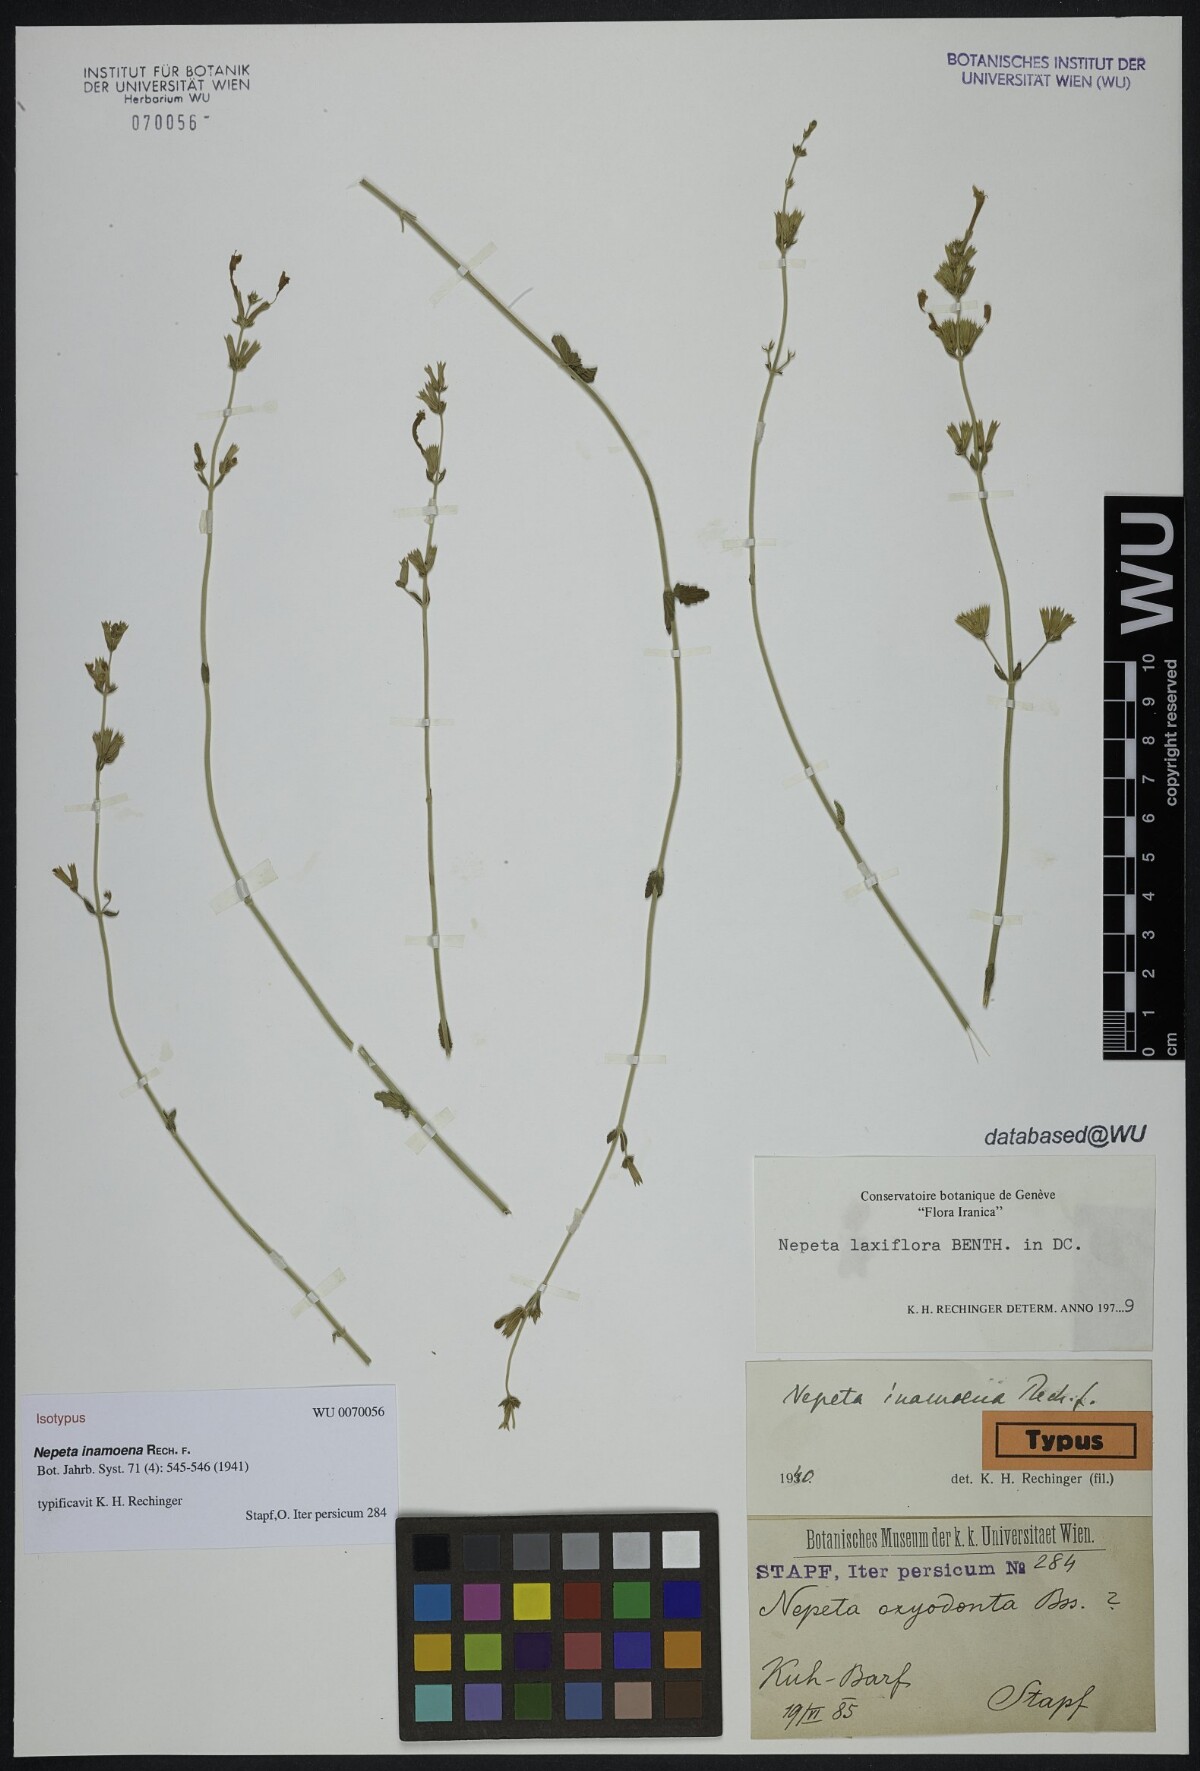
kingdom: Plantae
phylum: Tracheophyta
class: Magnoliopsida
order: Lamiales
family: Lamiaceae
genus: Nepeta
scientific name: Nepeta inamoena
